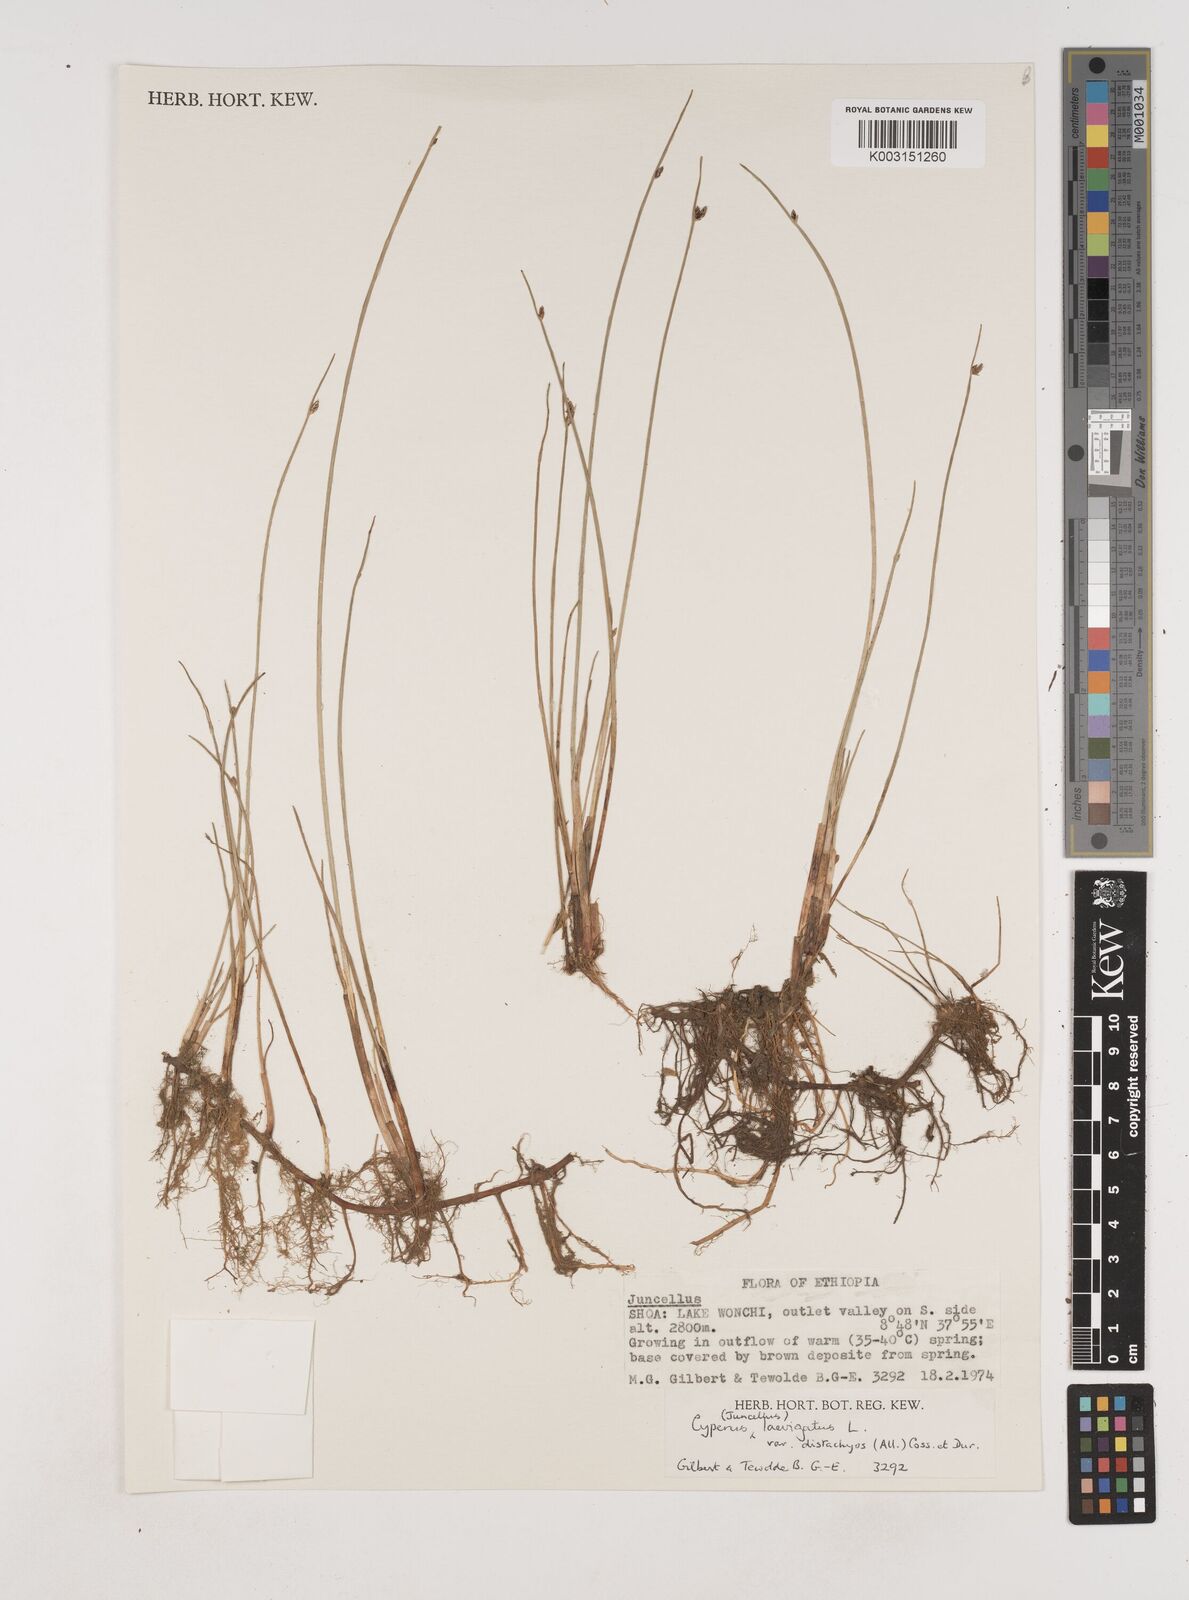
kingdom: Plantae
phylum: Tracheophyta
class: Liliopsida
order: Poales
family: Cyperaceae
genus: Cyperus
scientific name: Cyperus laevigatus
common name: Smooth flat sedge
